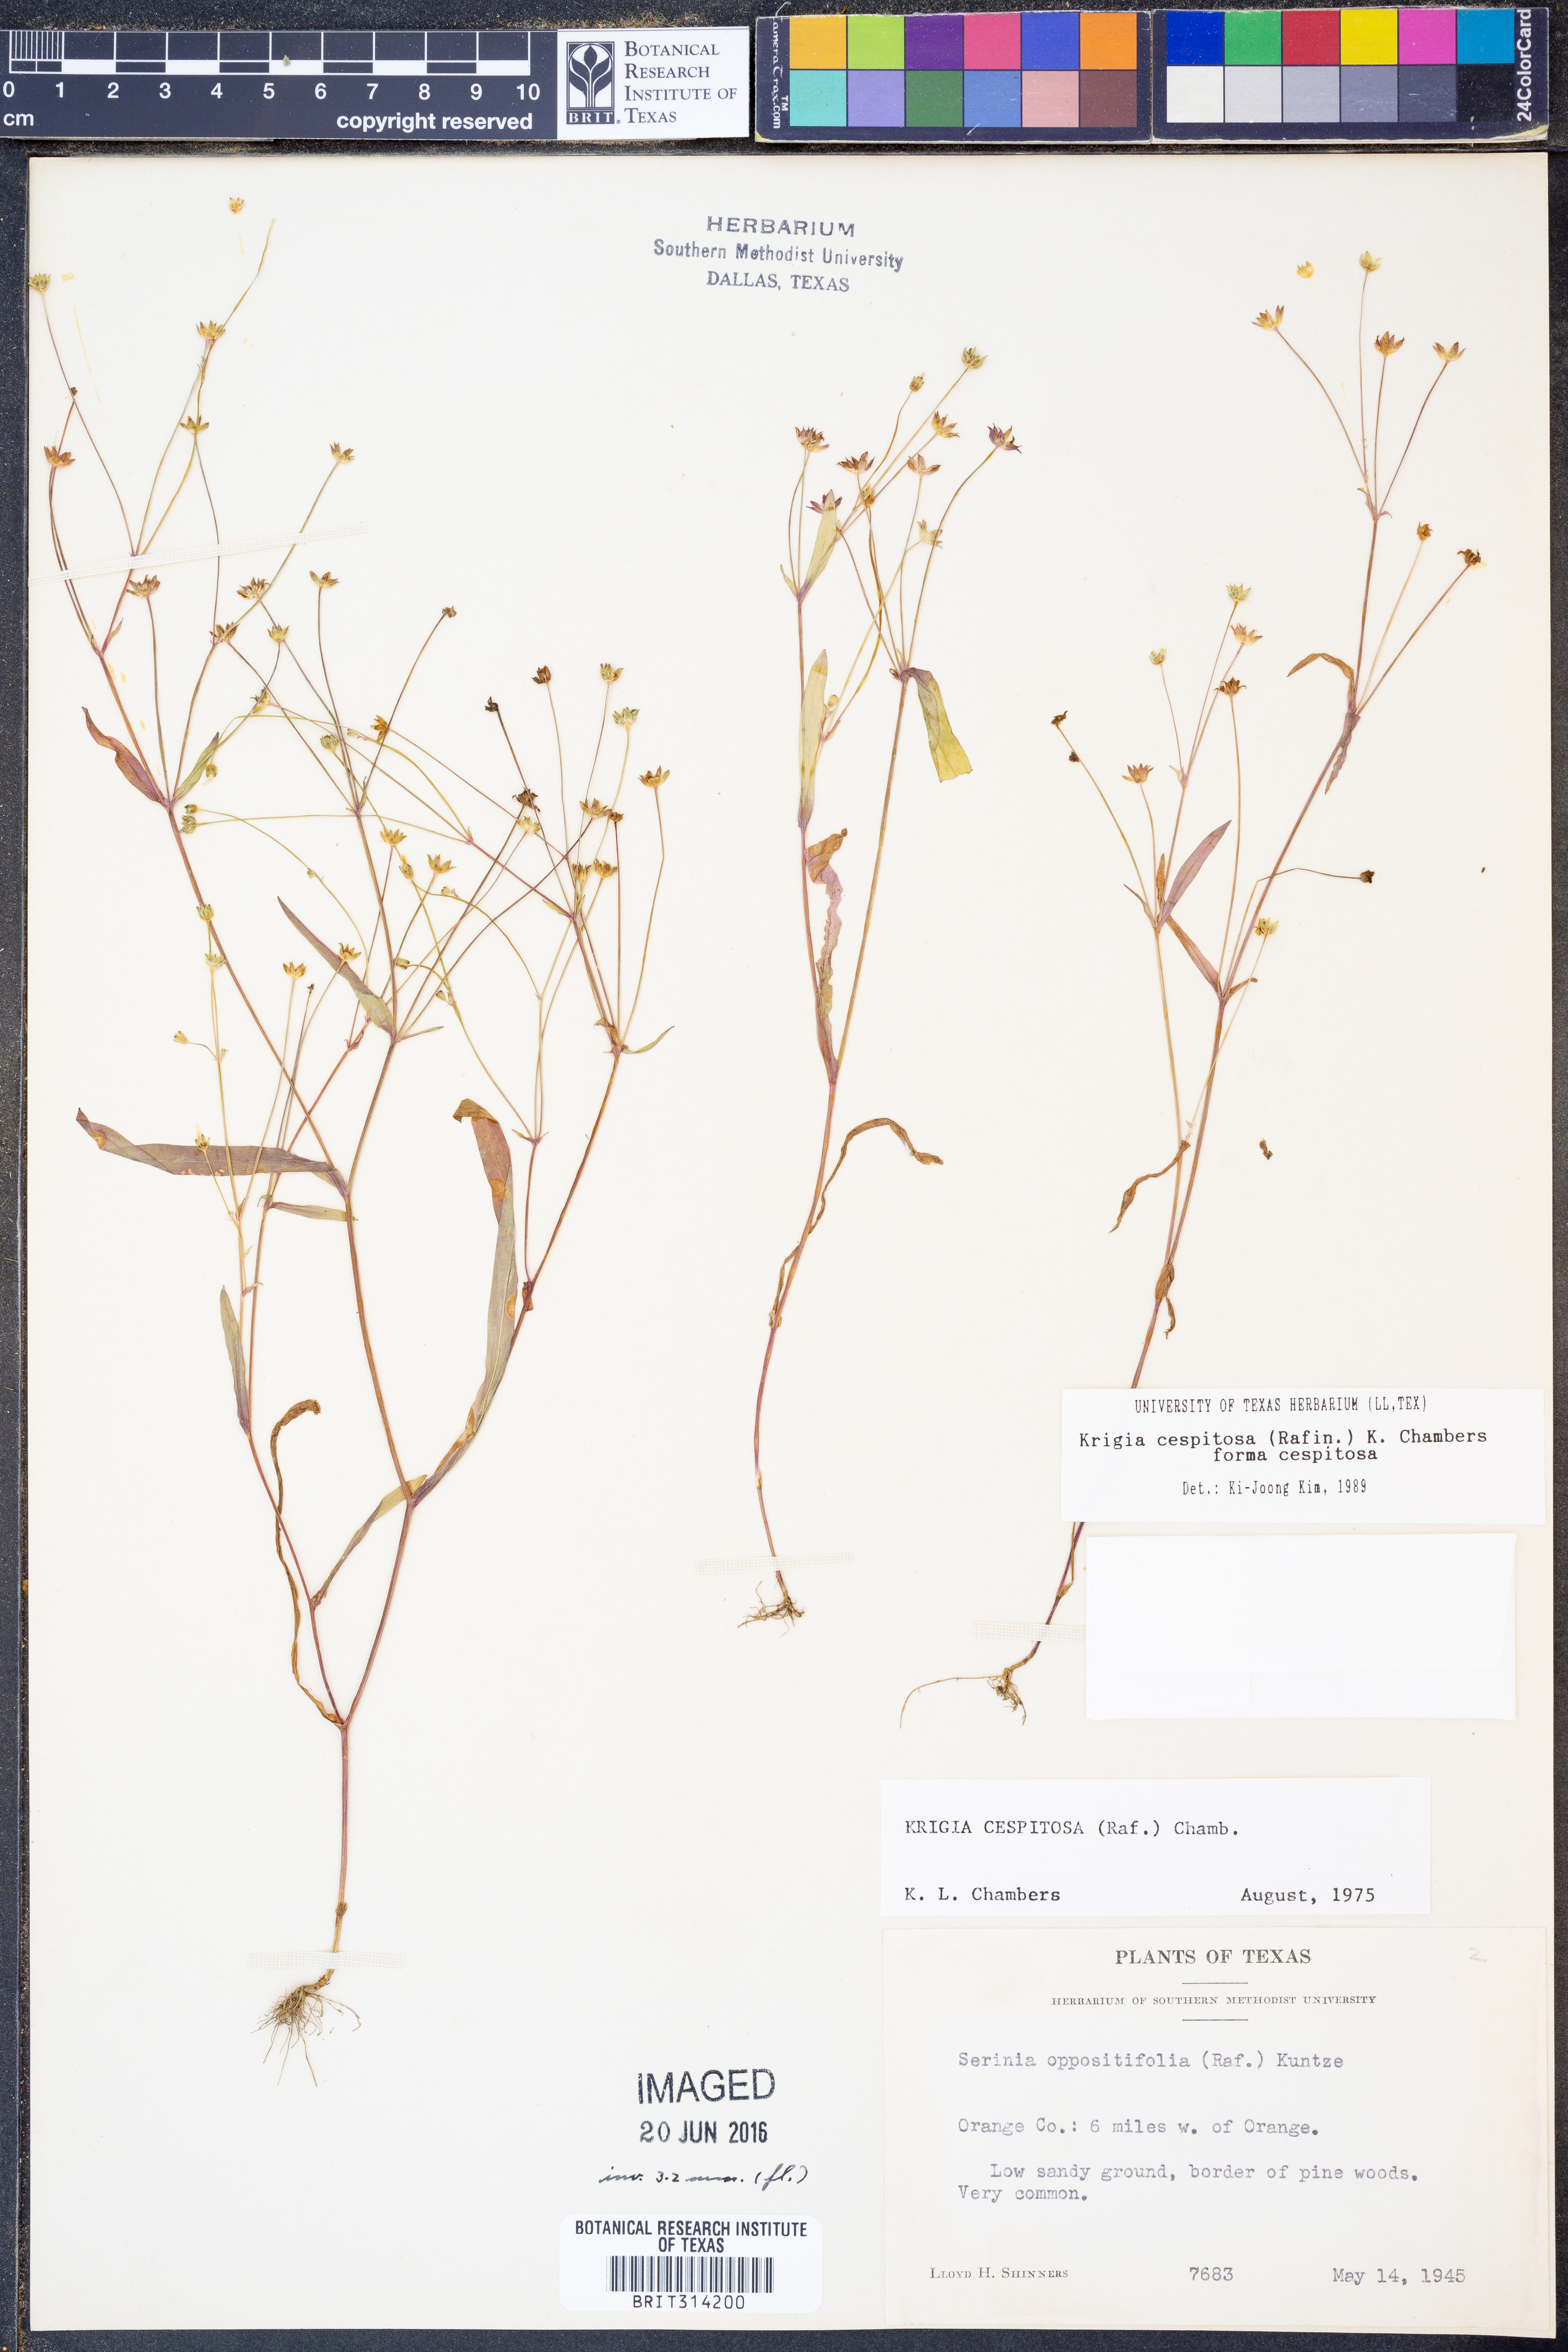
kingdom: Plantae
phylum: Tracheophyta
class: Magnoliopsida
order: Asterales
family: Asteraceae
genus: Krigia
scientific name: Krigia cespitosa
